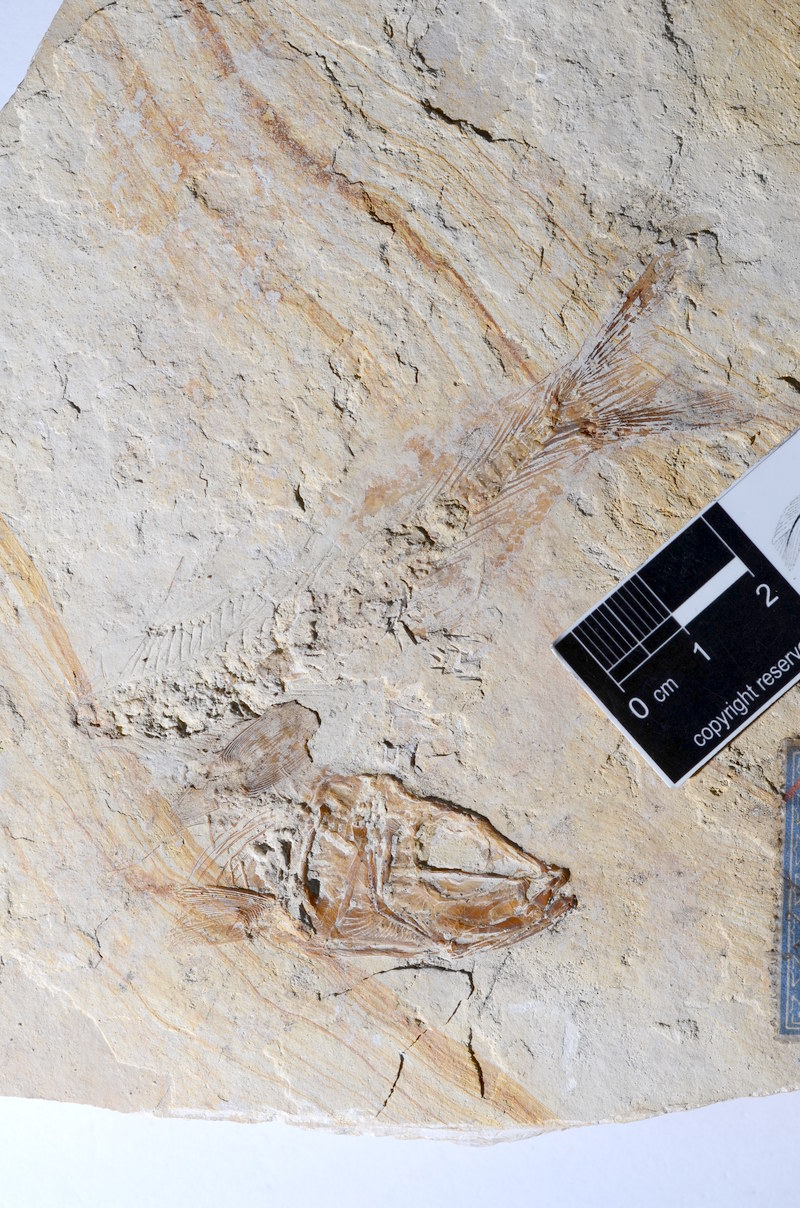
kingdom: Animalia
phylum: Chordata
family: Ascalaboidae
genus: Tharsis
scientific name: Tharsis dubius
